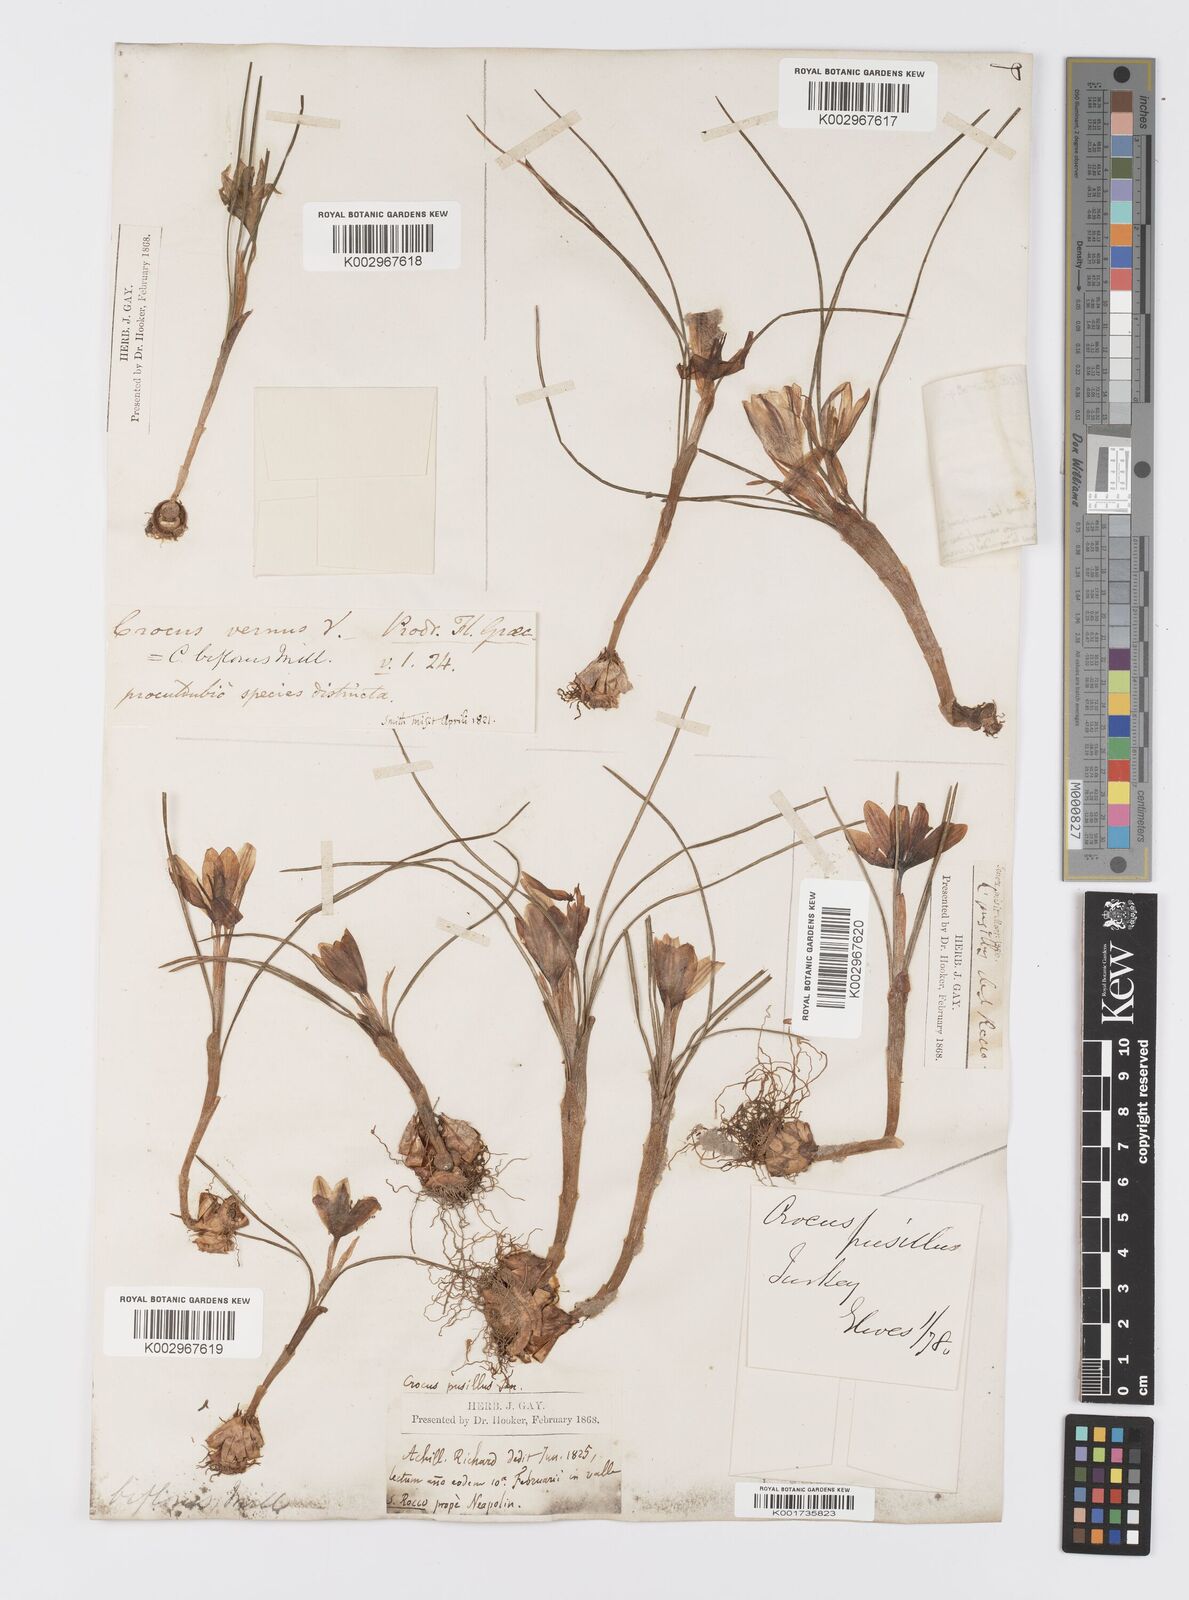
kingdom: Plantae
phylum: Tracheophyta
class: Liliopsida
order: Asparagales
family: Iridaceae
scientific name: Iridaceae
